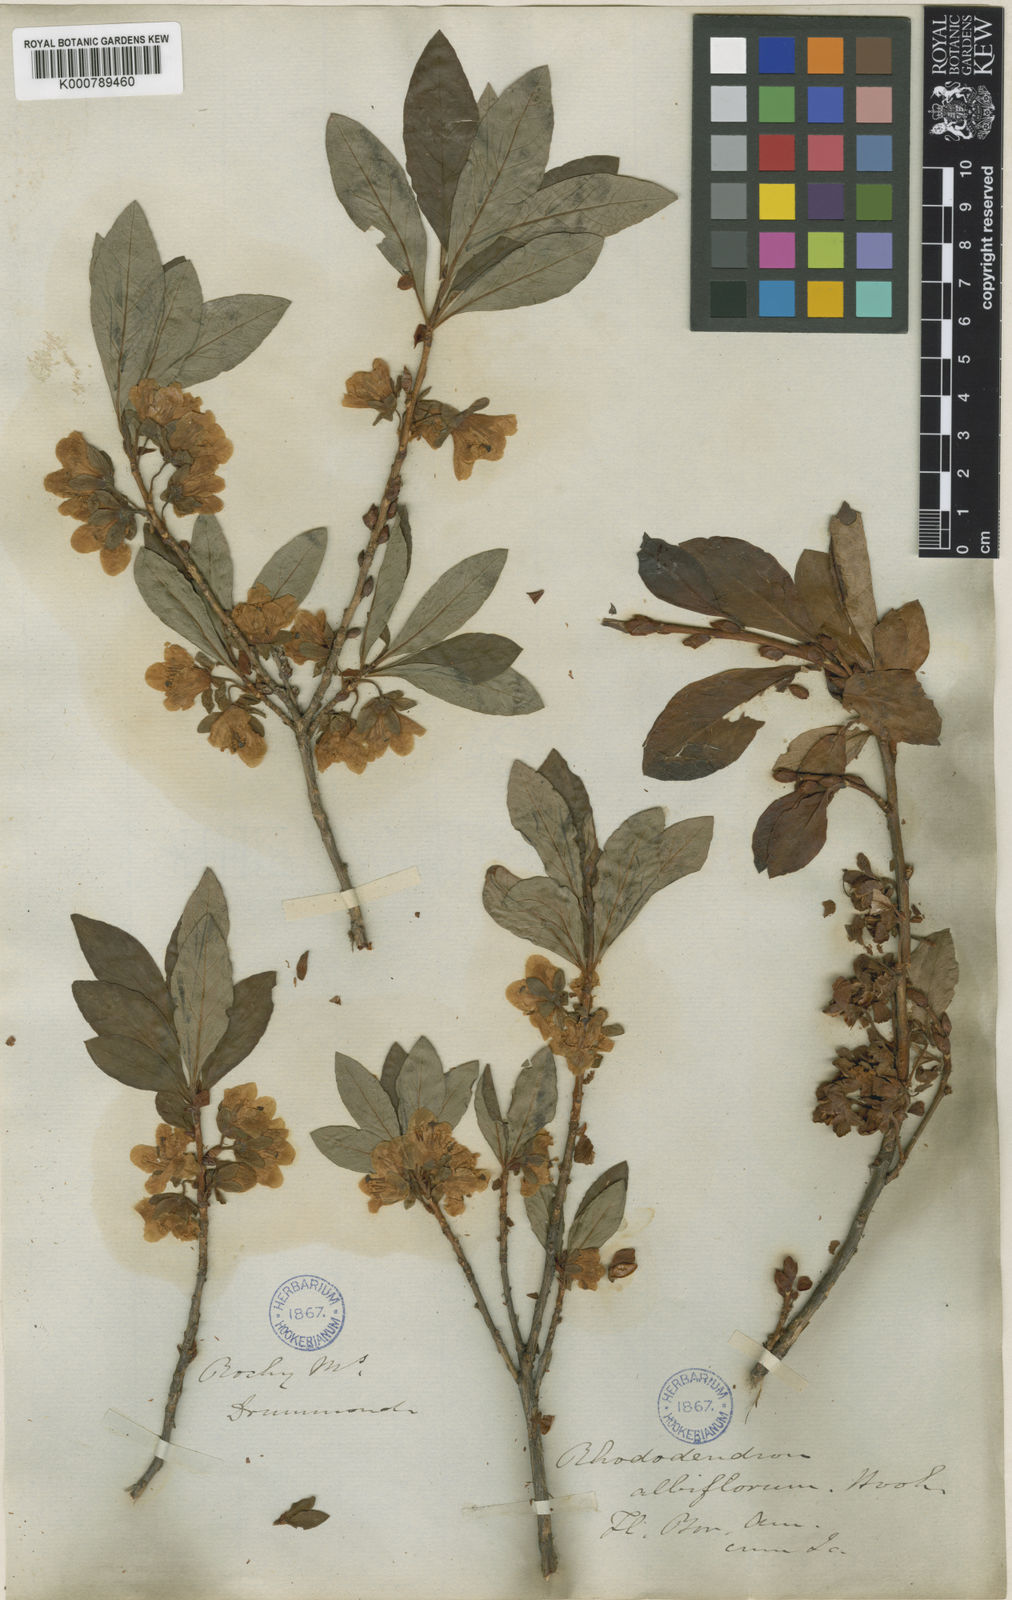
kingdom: Plantae
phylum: Tracheophyta
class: Magnoliopsida
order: Ericales
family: Ericaceae
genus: Rhododendron
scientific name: Rhododendron
